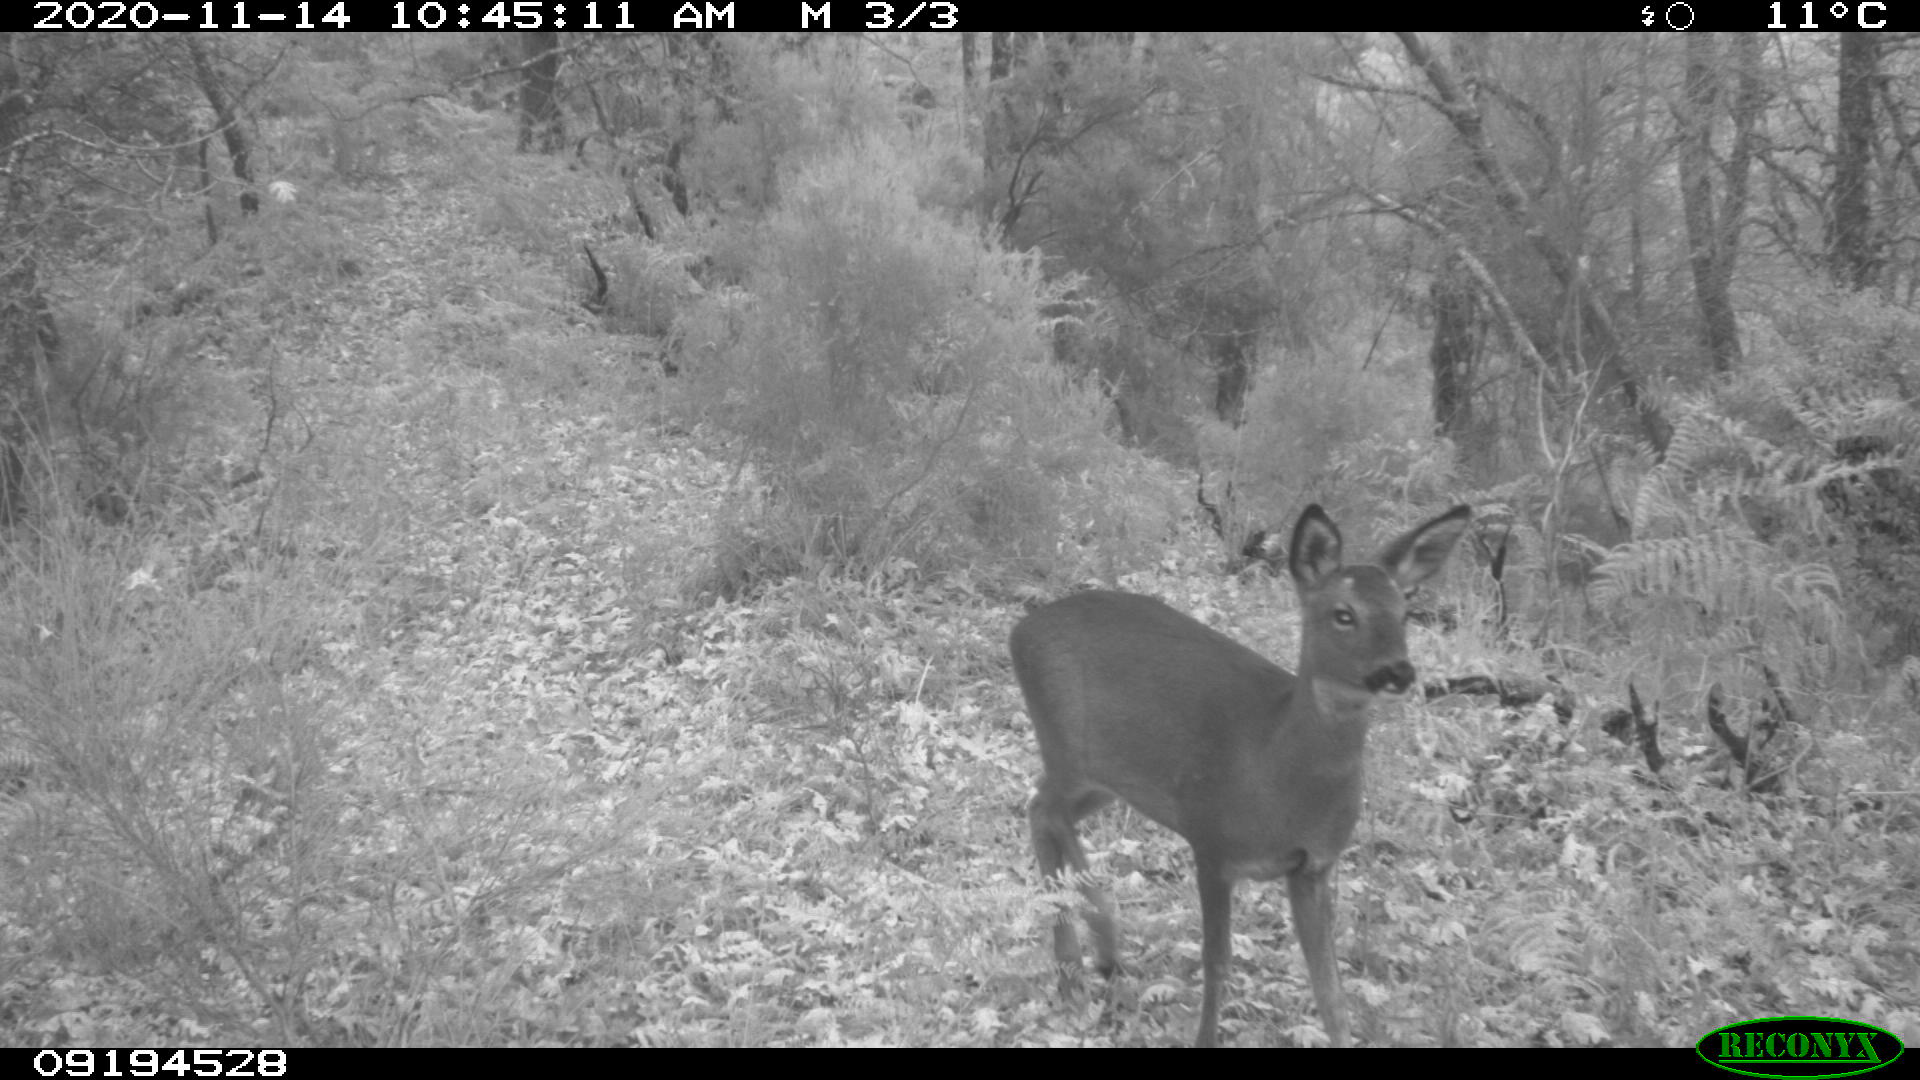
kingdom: Animalia
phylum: Chordata
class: Mammalia
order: Artiodactyla
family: Cervidae
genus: Capreolus
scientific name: Capreolus capreolus
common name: Western roe deer
